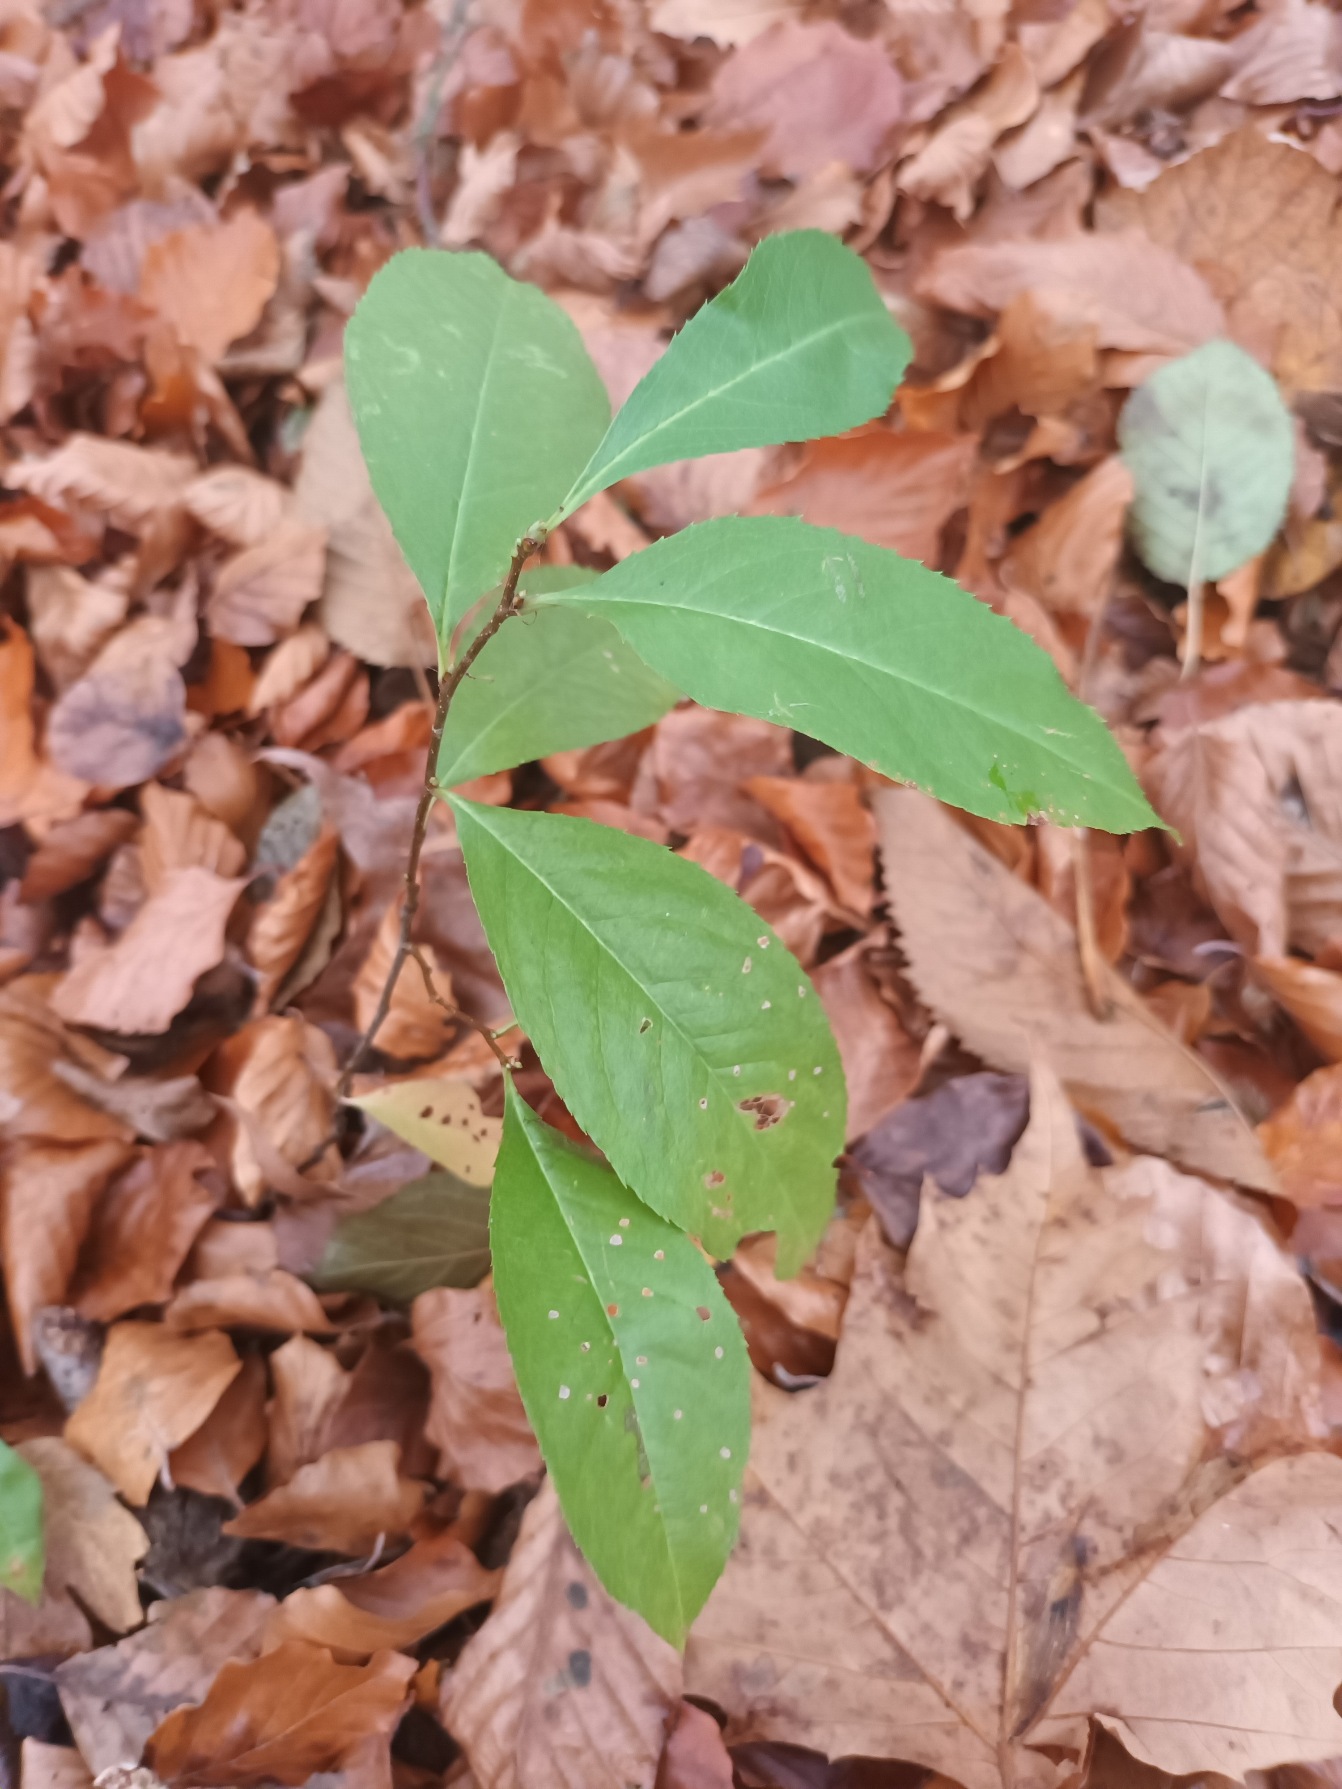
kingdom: Plantae
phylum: Tracheophyta
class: Magnoliopsida
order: Rosales
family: Rosaceae
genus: Prunus
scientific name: Prunus serotina
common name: Glansbladet hæg
